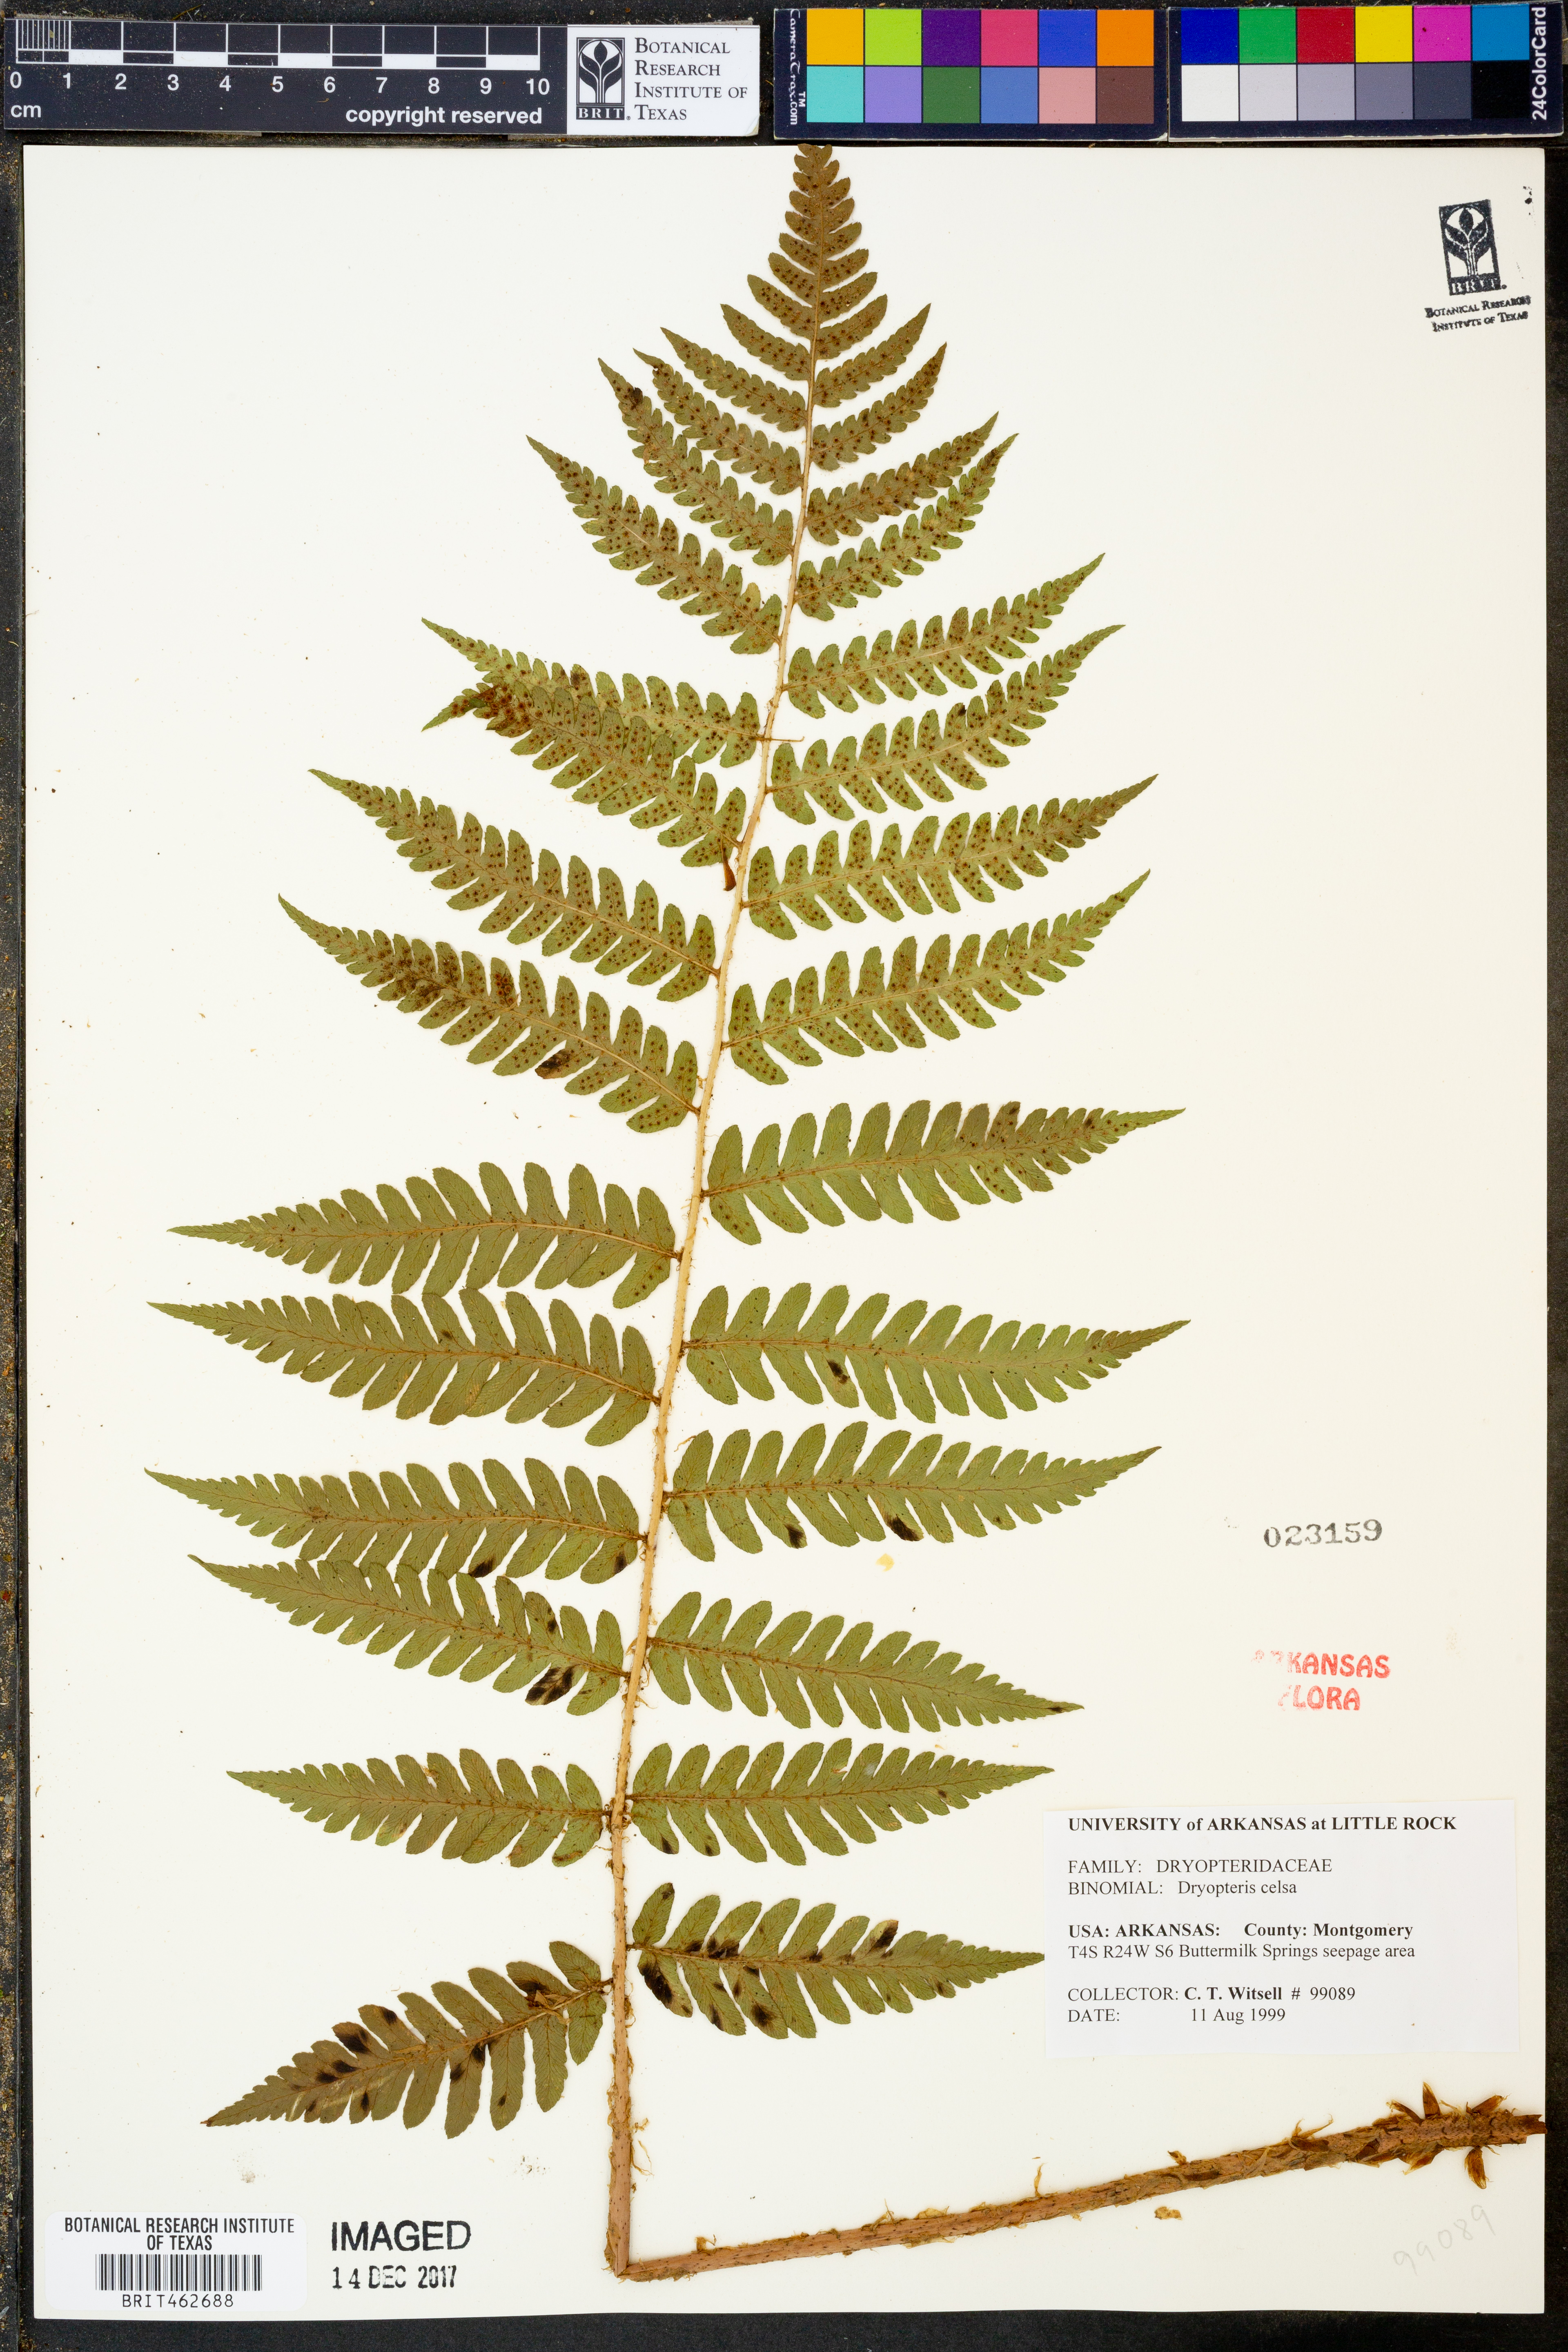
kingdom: Plantae
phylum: Tracheophyta
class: Polypodiopsida
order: Polypodiales
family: Dryopteridaceae
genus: Dryopteris
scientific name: Dryopteris celsa
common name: Log fern
